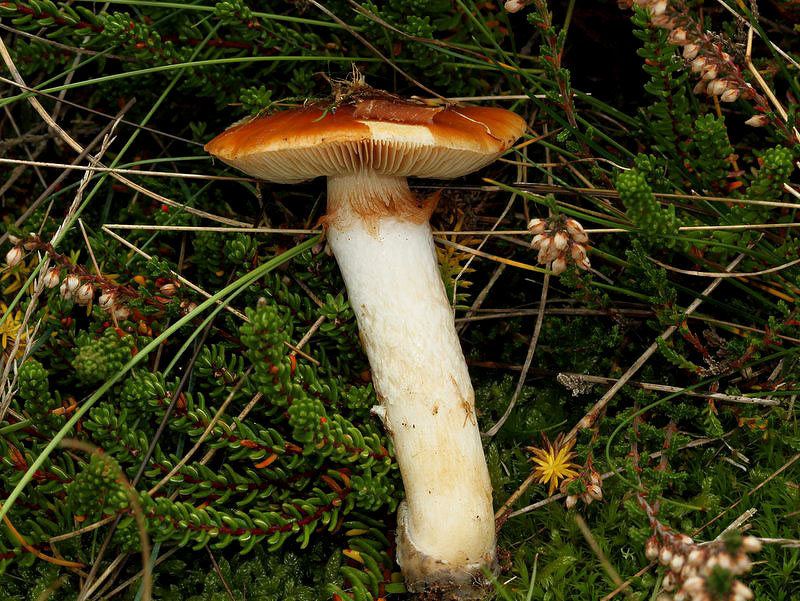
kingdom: Fungi
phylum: Basidiomycota
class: Agaricomycetes
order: Agaricales
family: Cortinariaceae
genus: Cortinarius
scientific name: Cortinarius mucosus
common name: kastaniebrun slørhat
